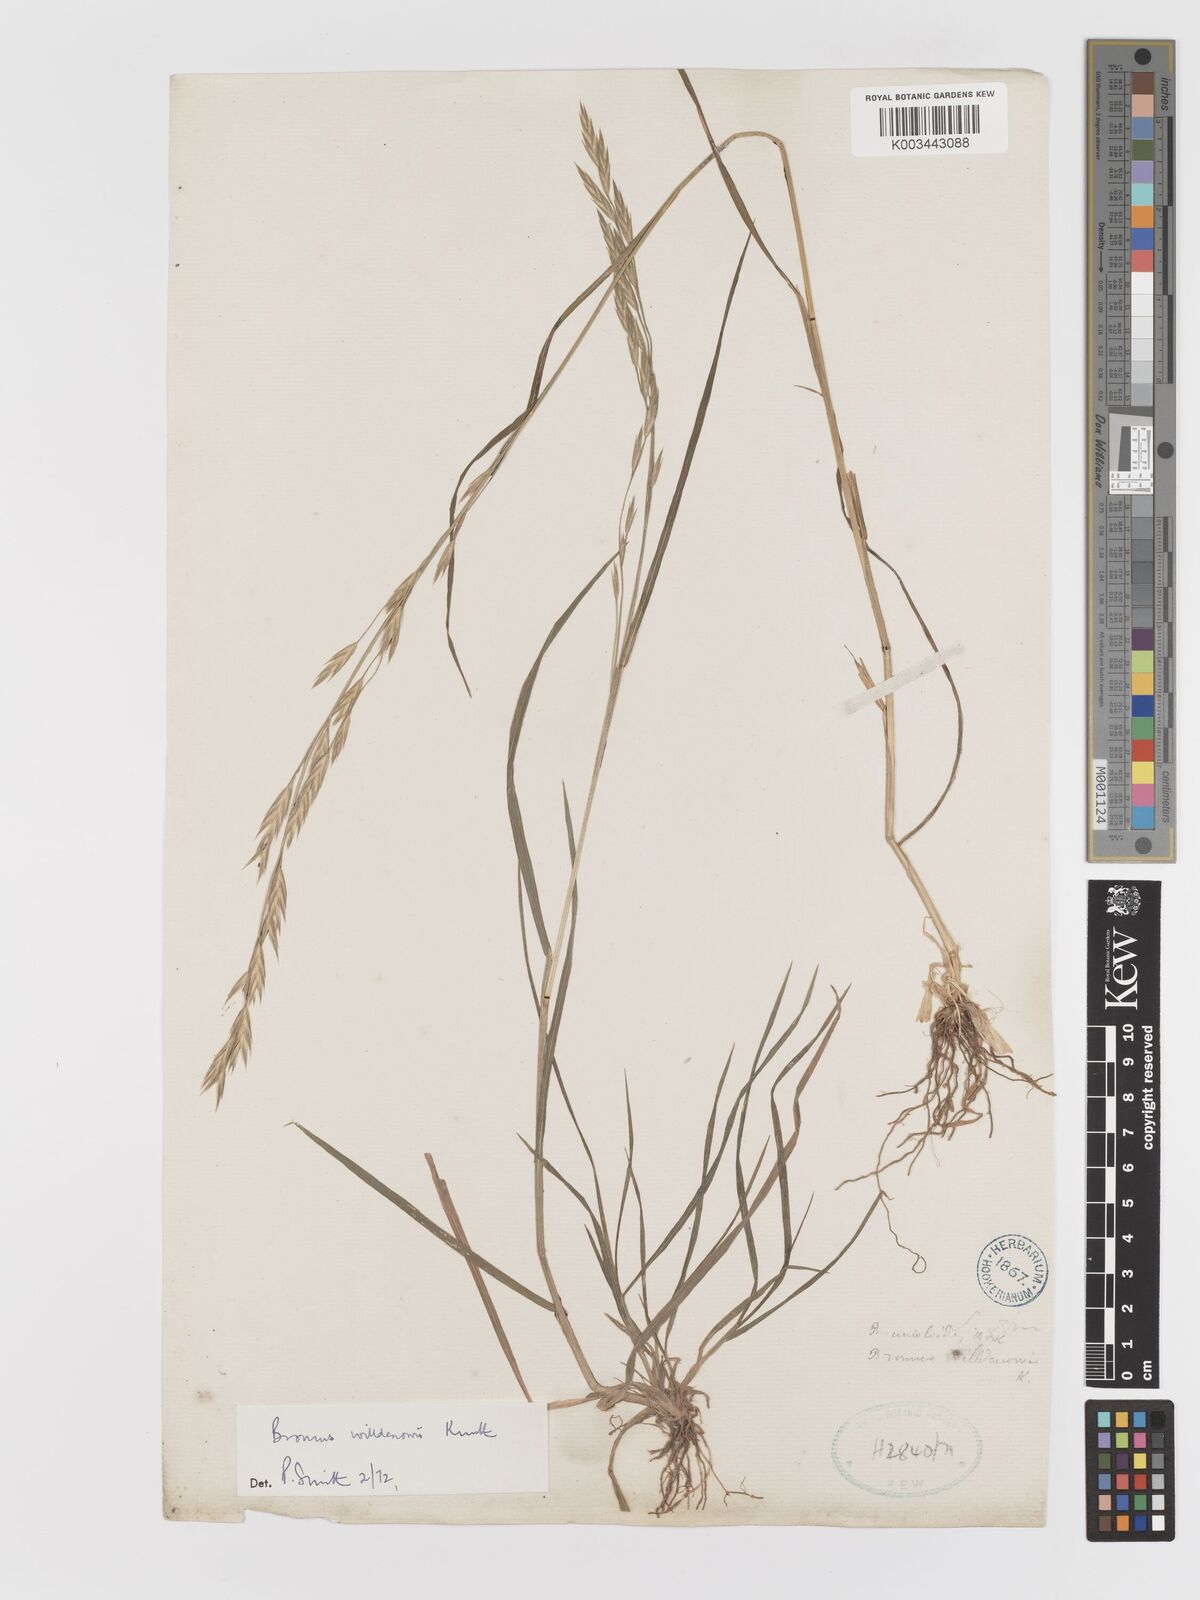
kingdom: Plantae
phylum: Tracheophyta
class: Liliopsida
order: Poales
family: Poaceae
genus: Bromus
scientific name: Bromus catharticus
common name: Rescuegrass
